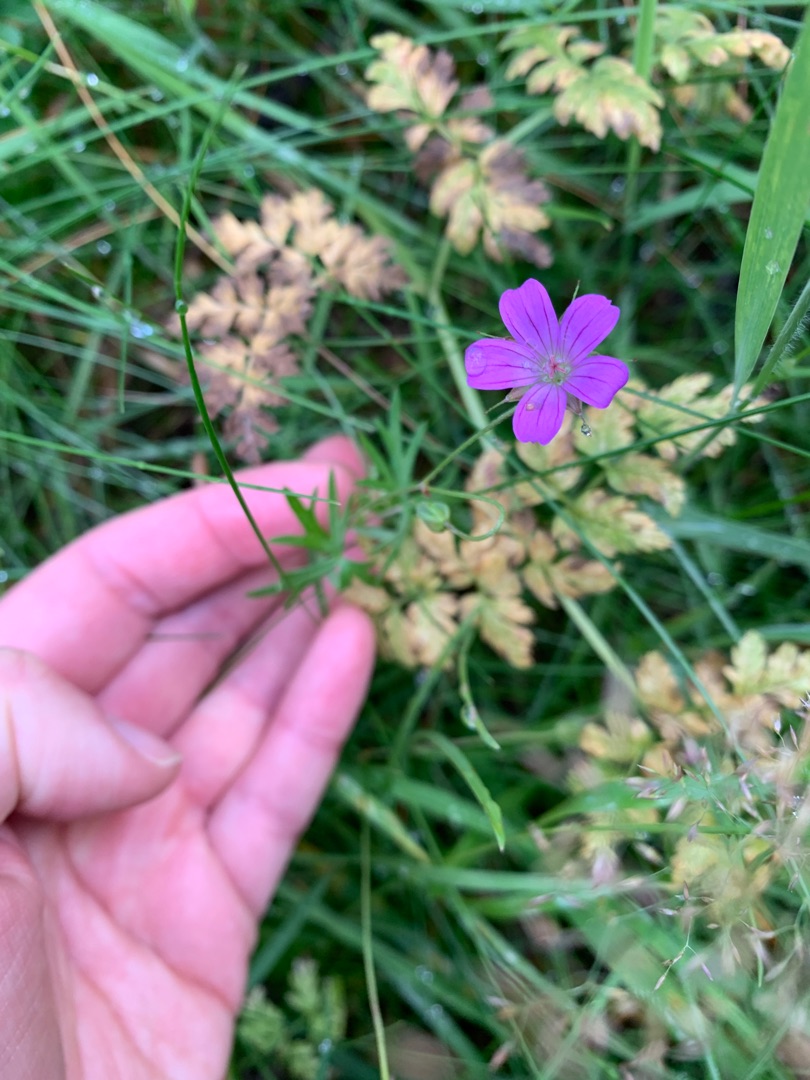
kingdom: Plantae
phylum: Tracheophyta
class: Magnoliopsida
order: Geraniales
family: Geraniaceae
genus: Geranium
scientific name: Geranium columbinum
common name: Storbægret storkenæb
